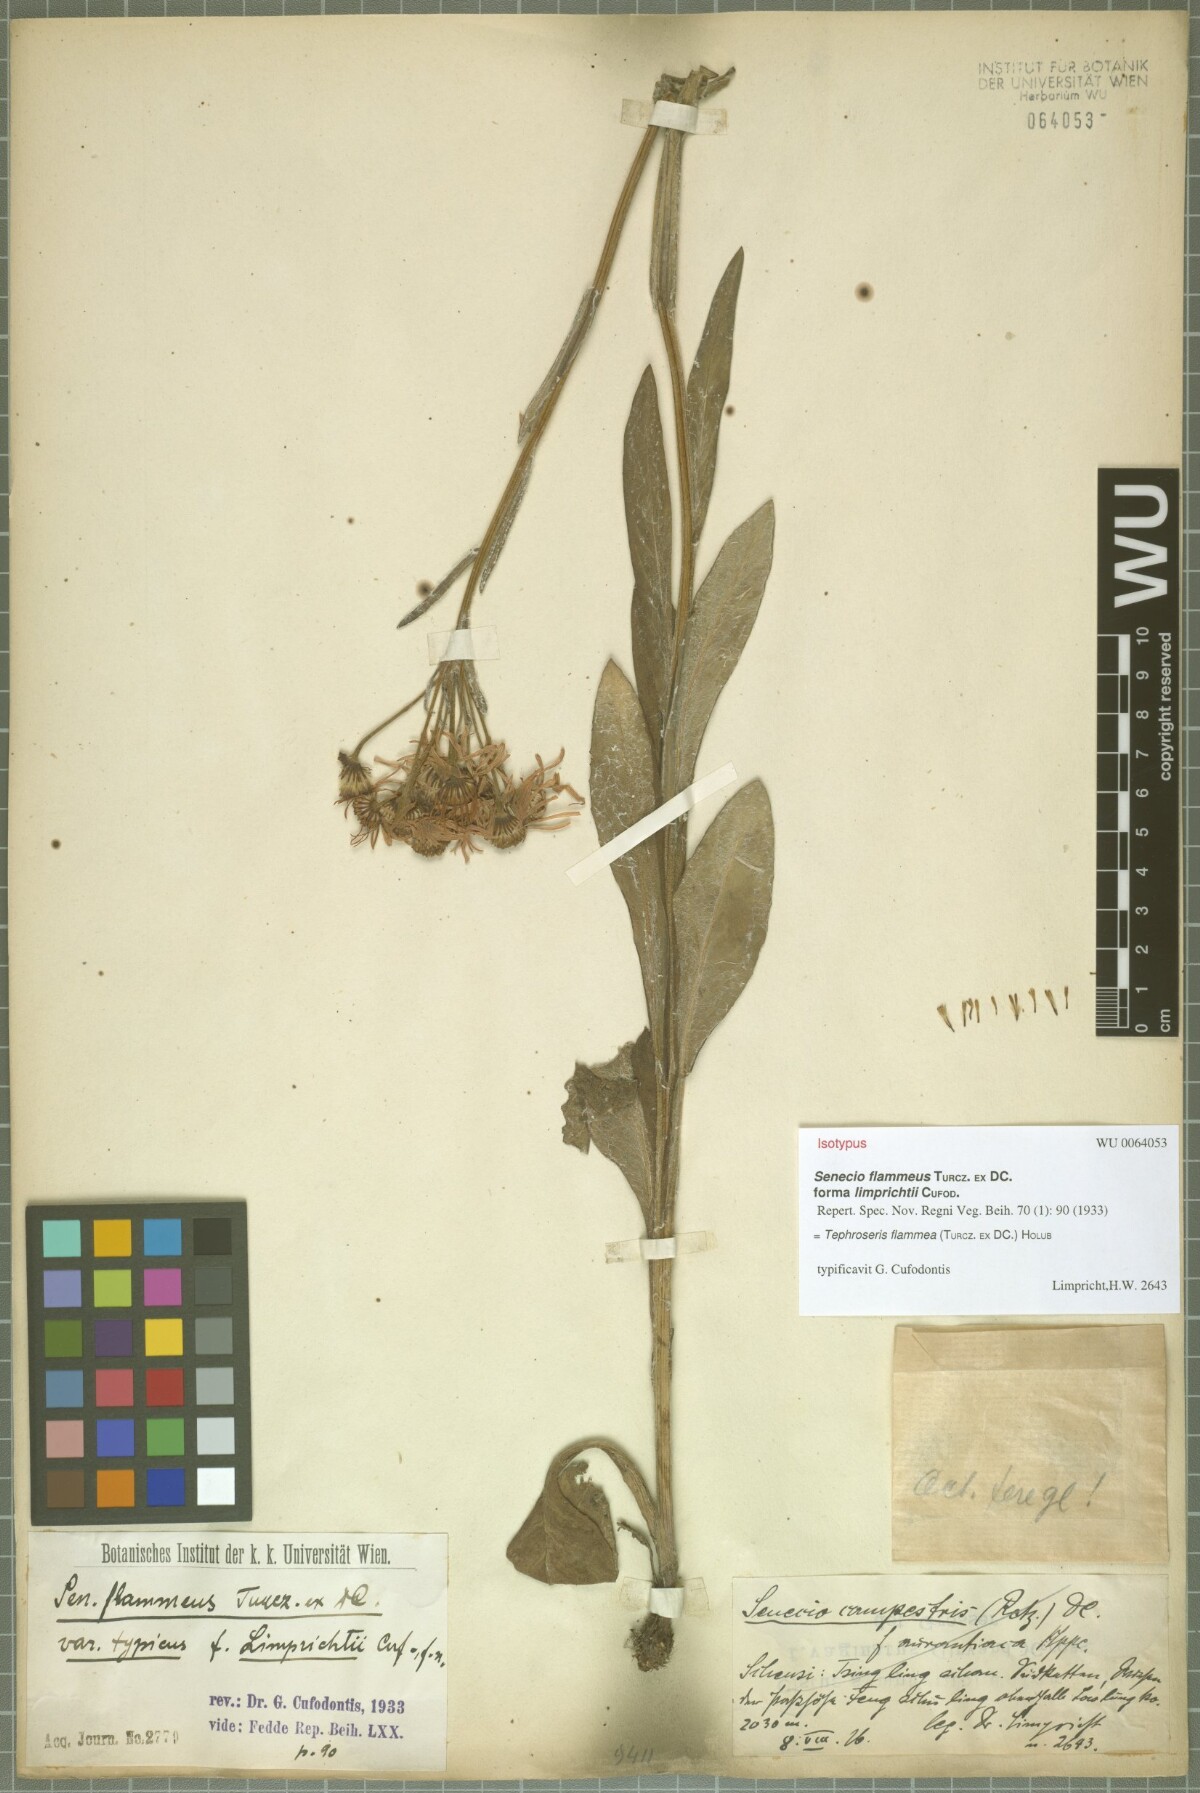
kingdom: Plantae
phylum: Tracheophyta
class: Magnoliopsida
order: Asterales
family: Asteraceae
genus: Tephroseris
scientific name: Tephroseris flammea
